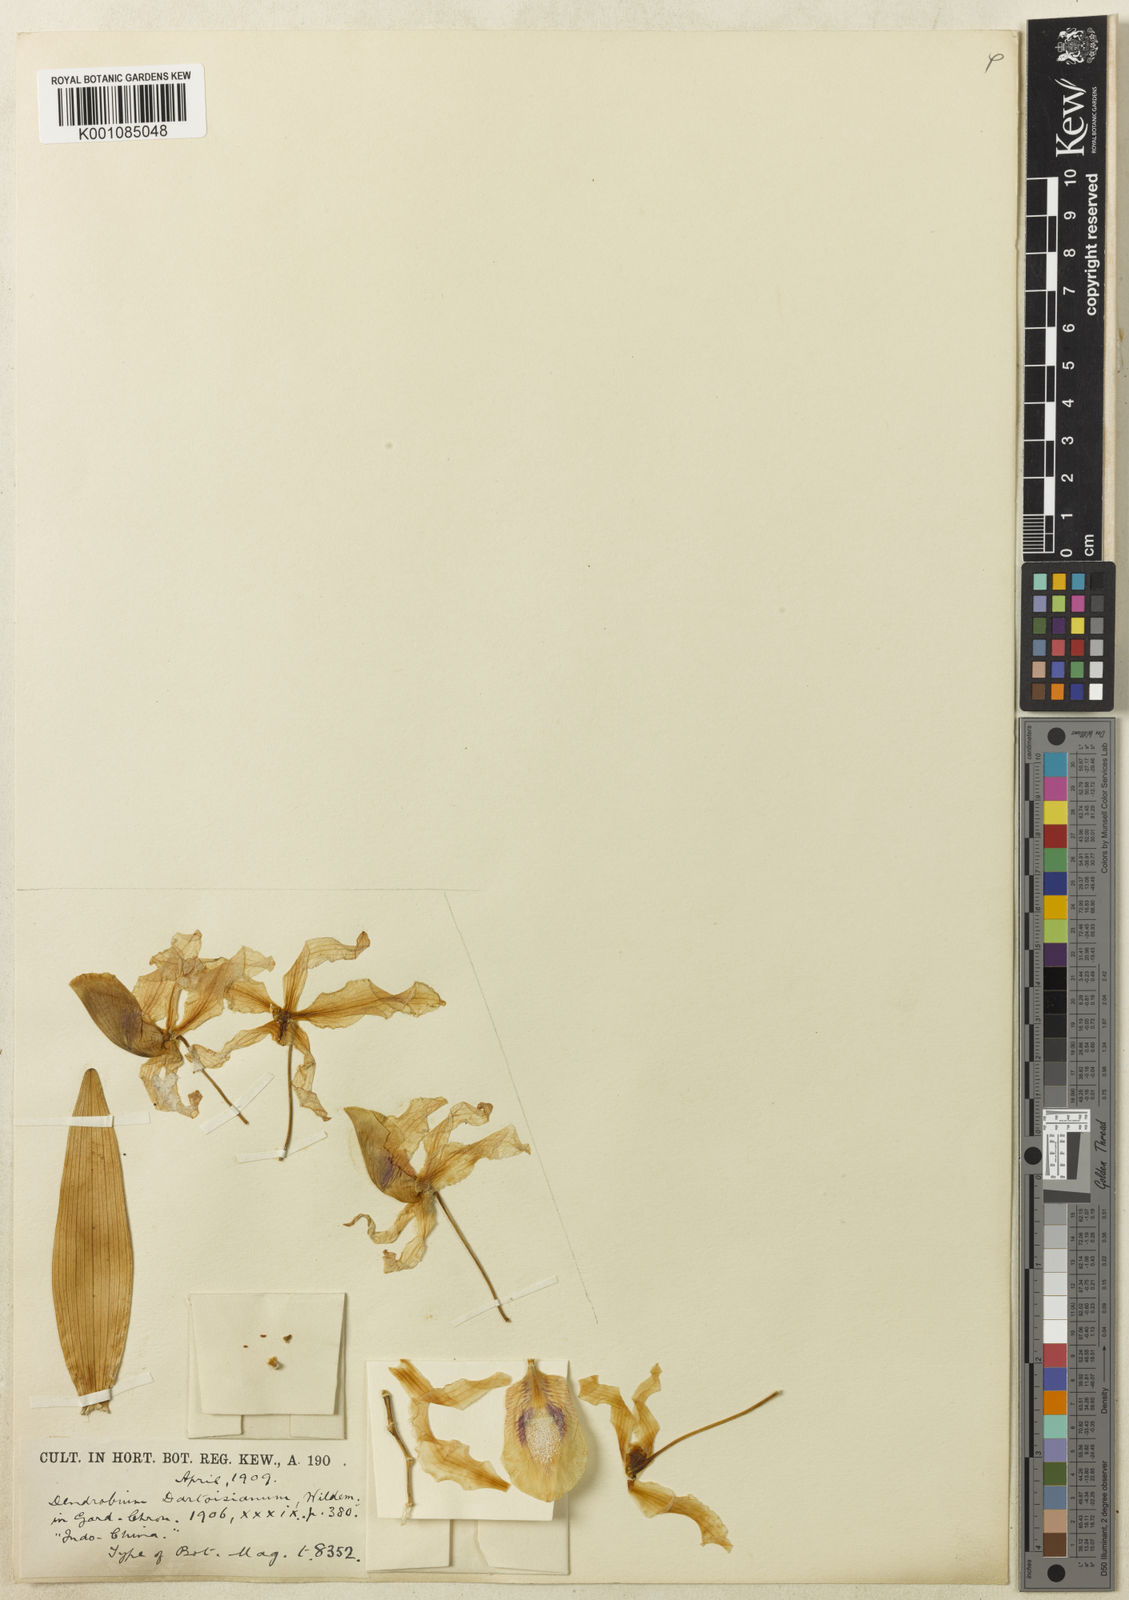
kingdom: Plantae
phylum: Tracheophyta
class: Liliopsida
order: Asparagales
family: Orchidaceae
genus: Dendrobium
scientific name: Dendrobium tortile
